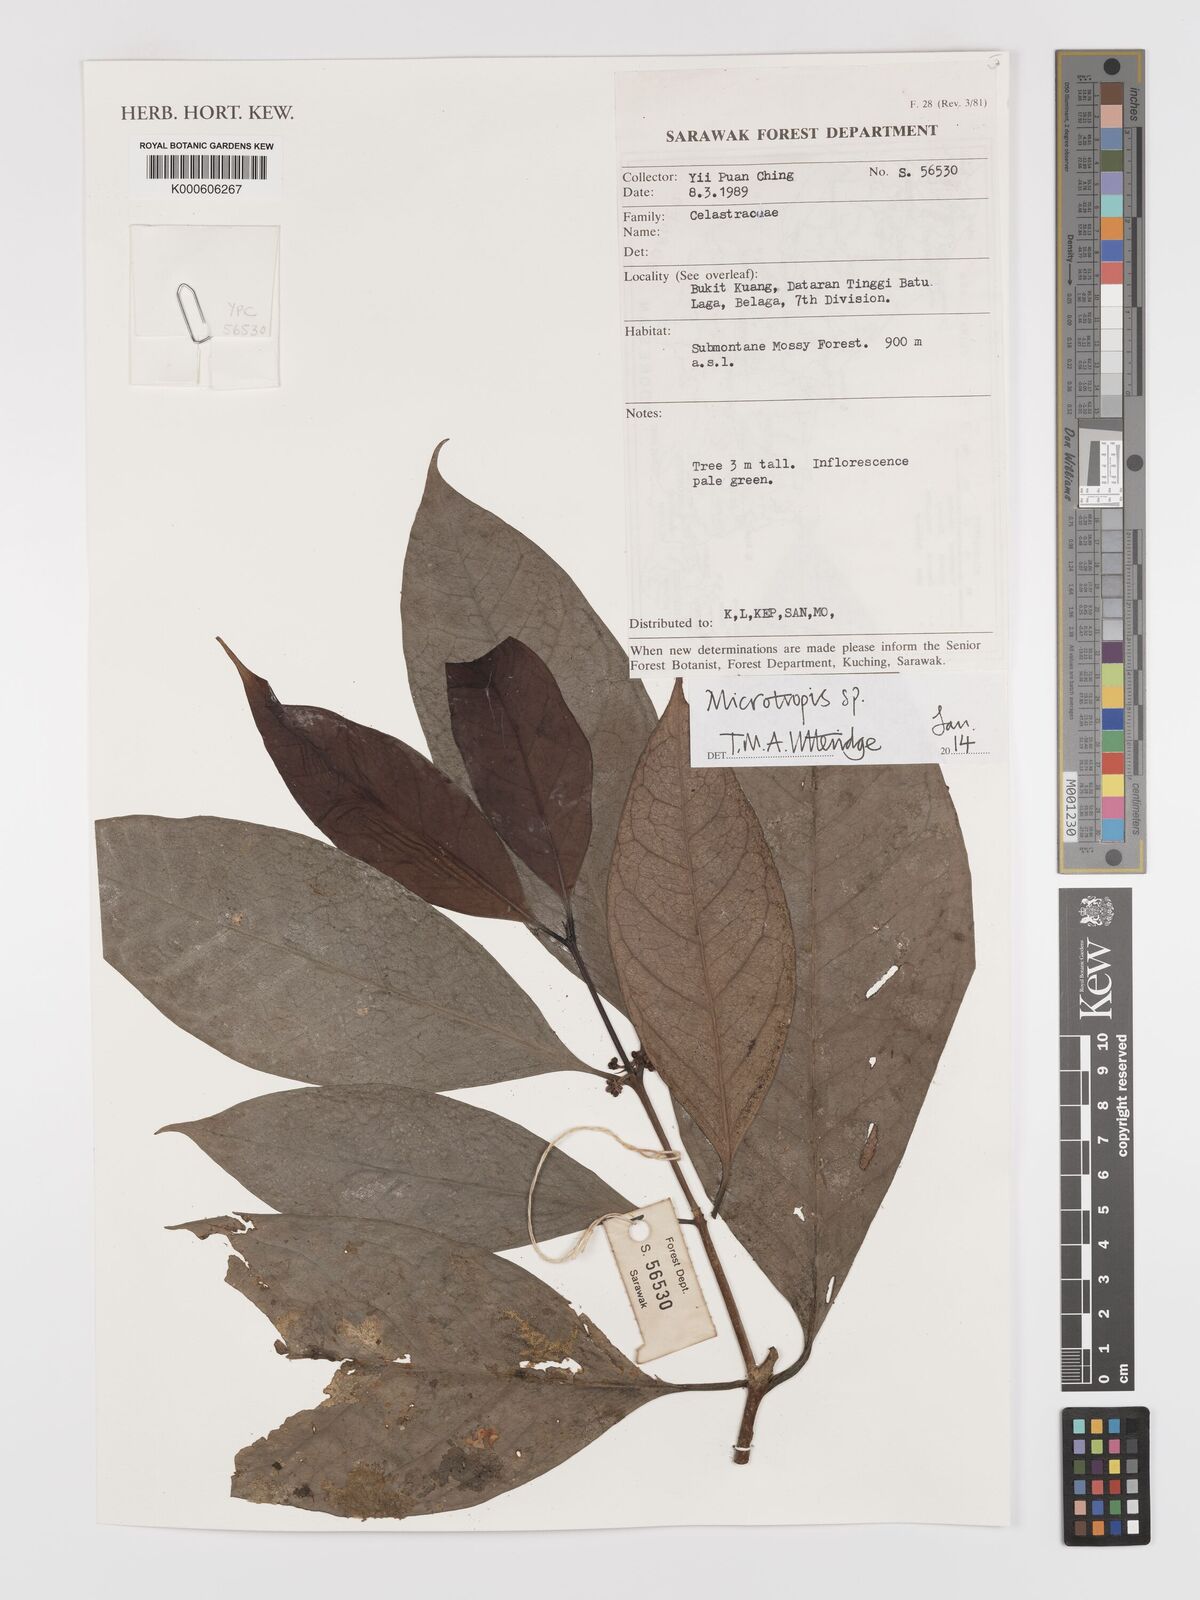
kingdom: Plantae
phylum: Tracheophyta
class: Magnoliopsida
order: Celastrales
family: Celastraceae
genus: Microtropis
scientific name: Microtropis
